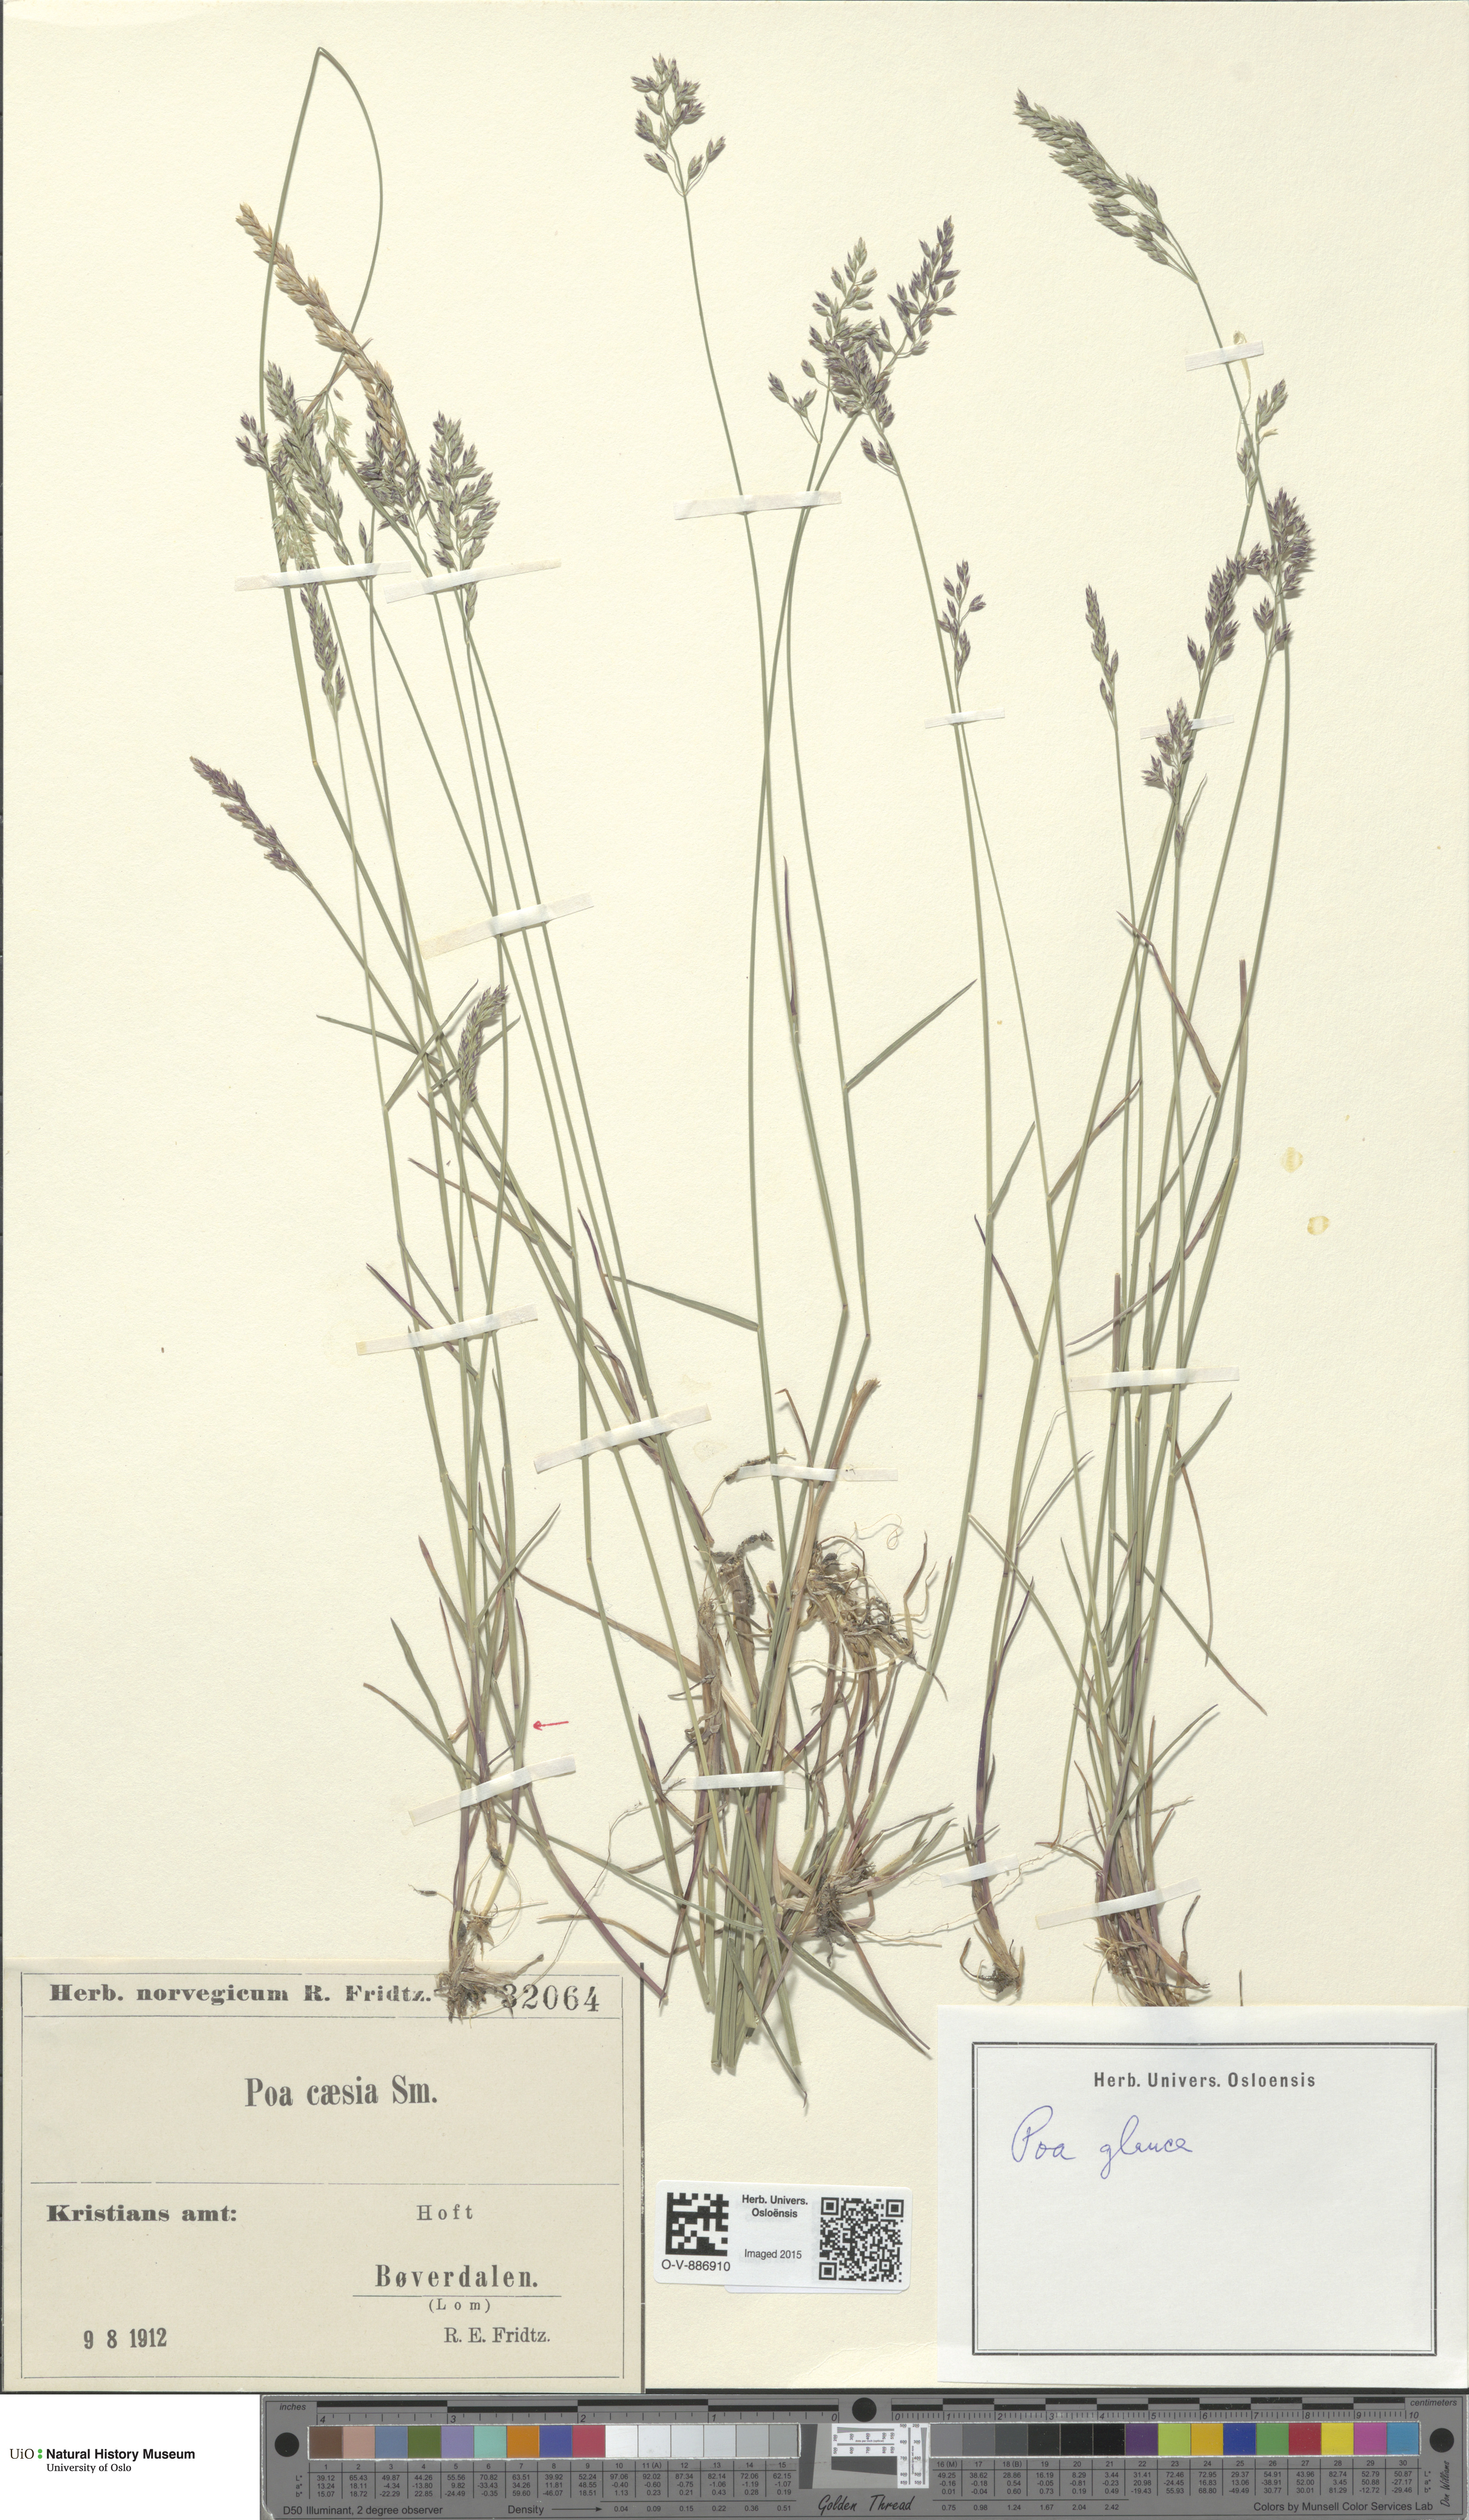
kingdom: Plantae
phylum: Tracheophyta
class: Liliopsida
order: Poales
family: Poaceae
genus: Poa
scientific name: Poa glauca
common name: Glaucous bluegrass
